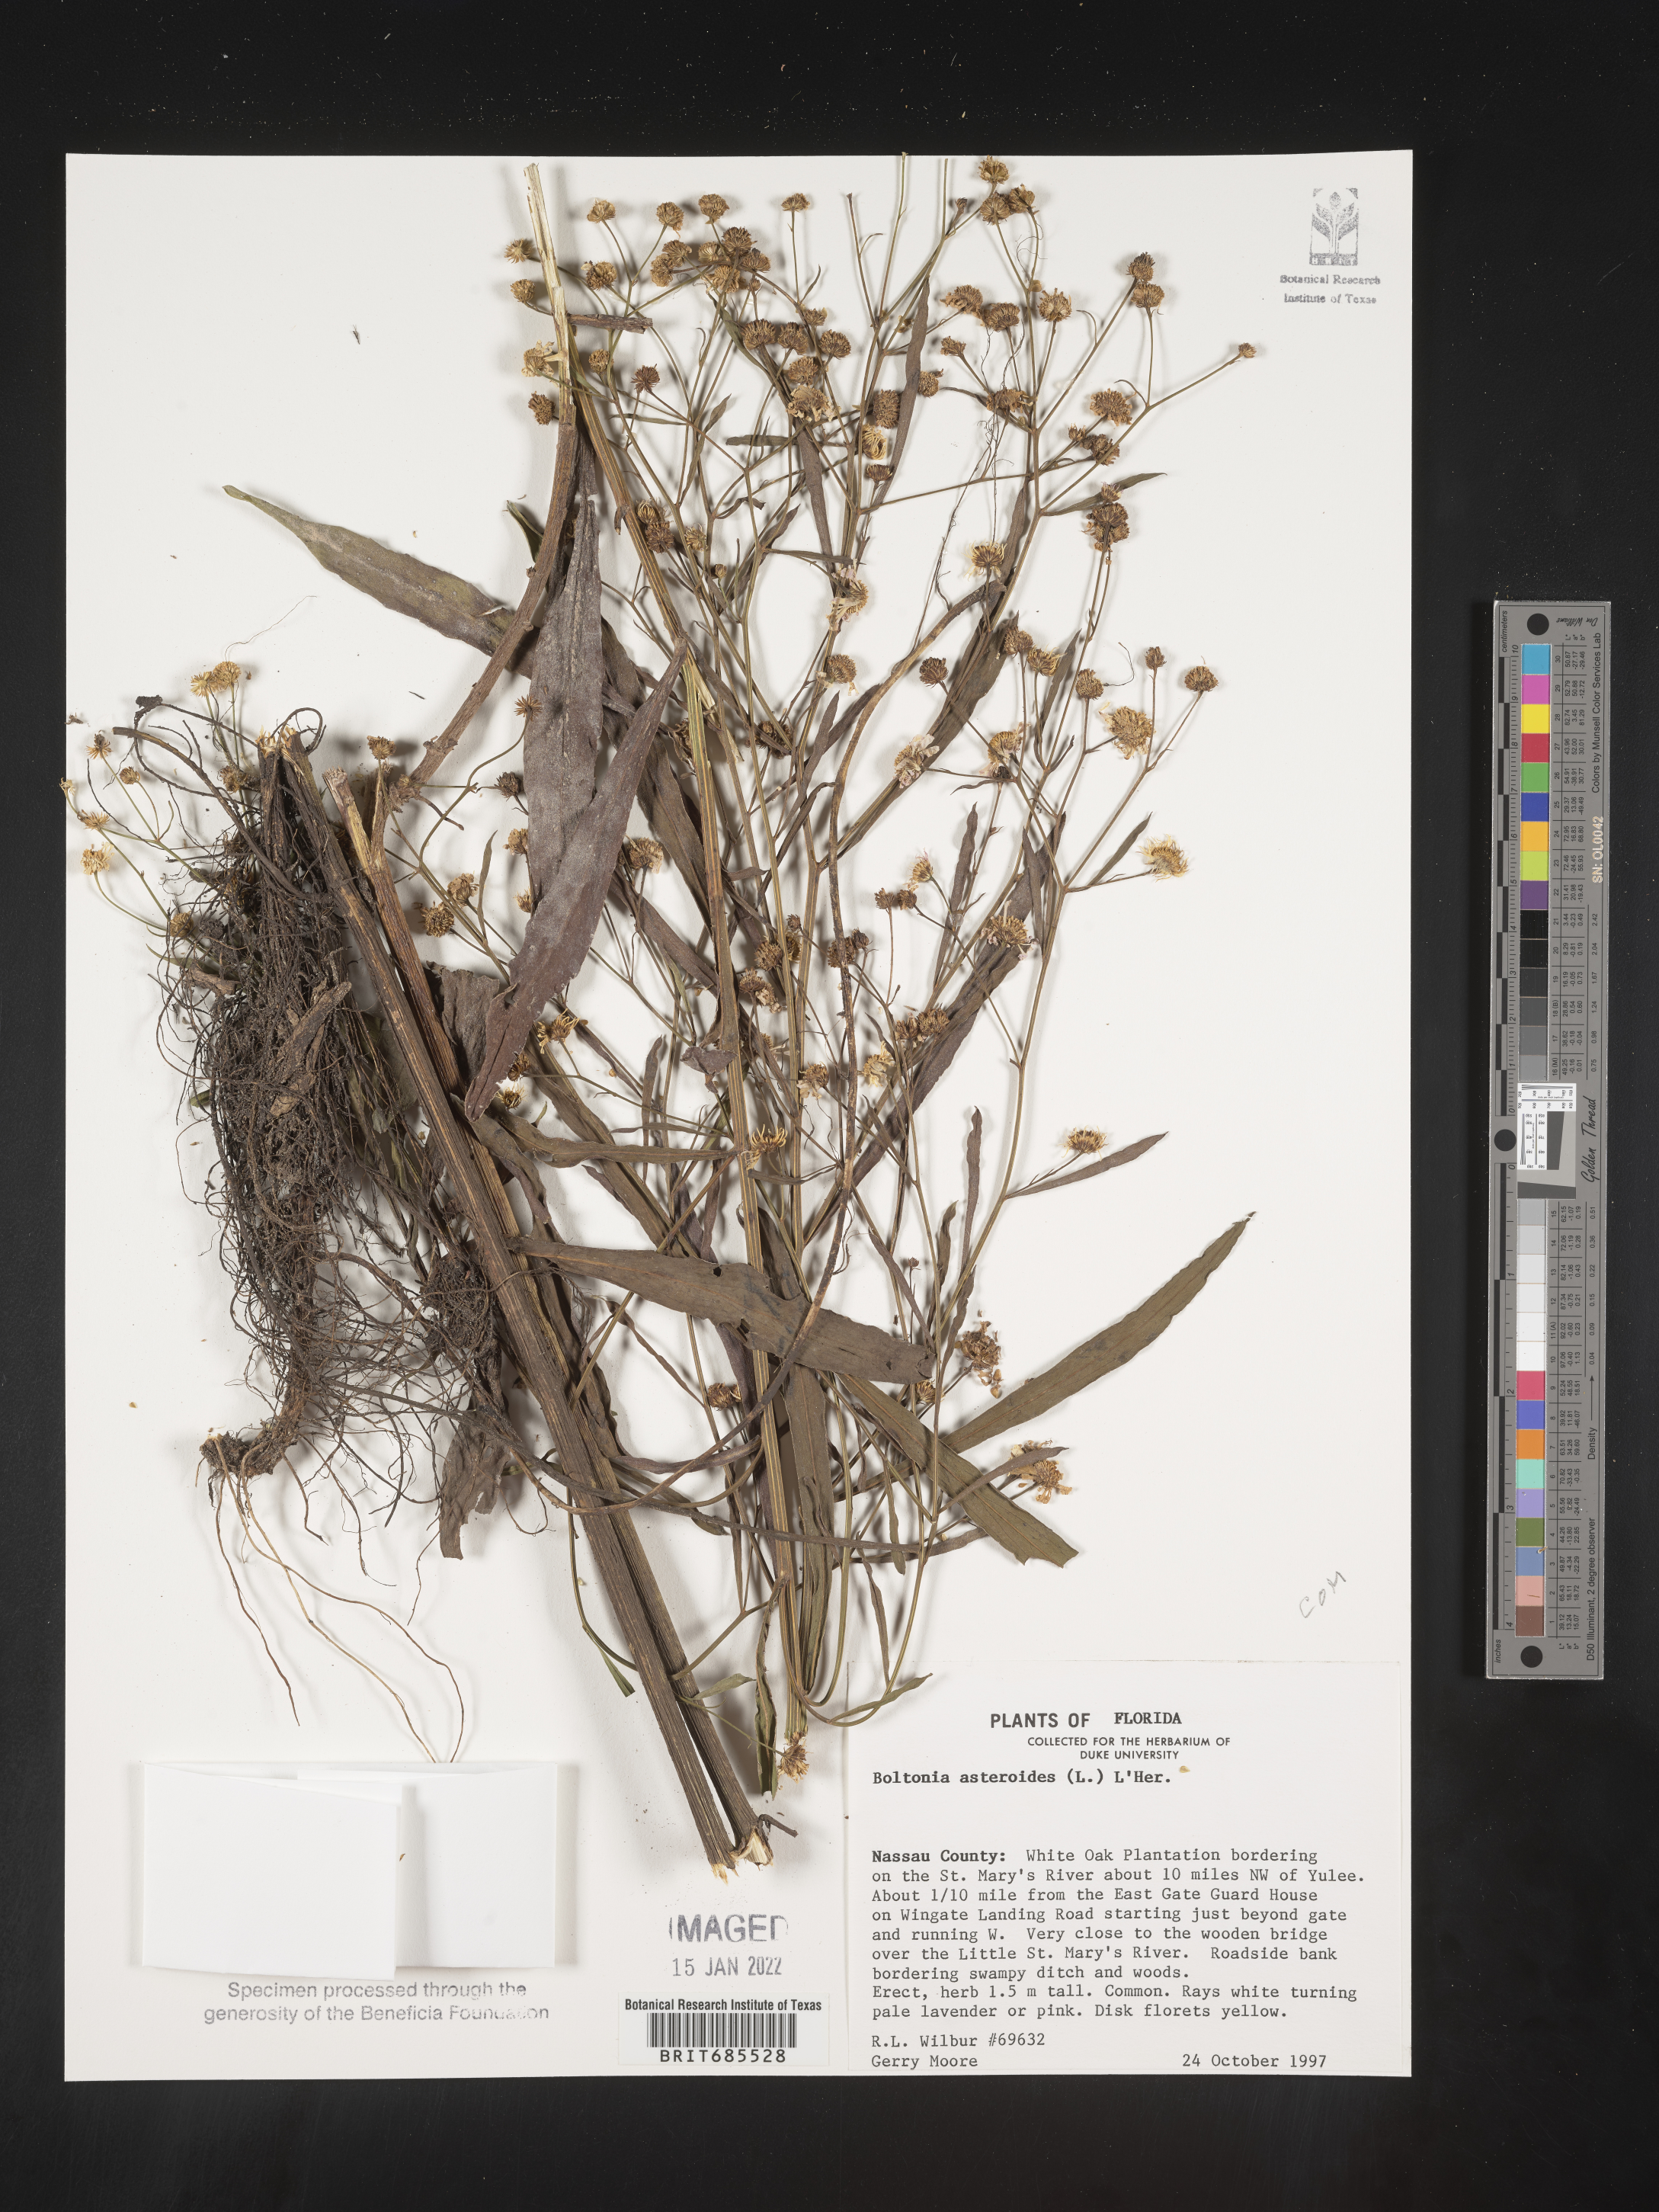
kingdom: Plantae
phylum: Tracheophyta
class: Magnoliopsida
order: Asterales
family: Asteraceae
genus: Boltonia
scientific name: Boltonia asteroides
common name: False chamomile
